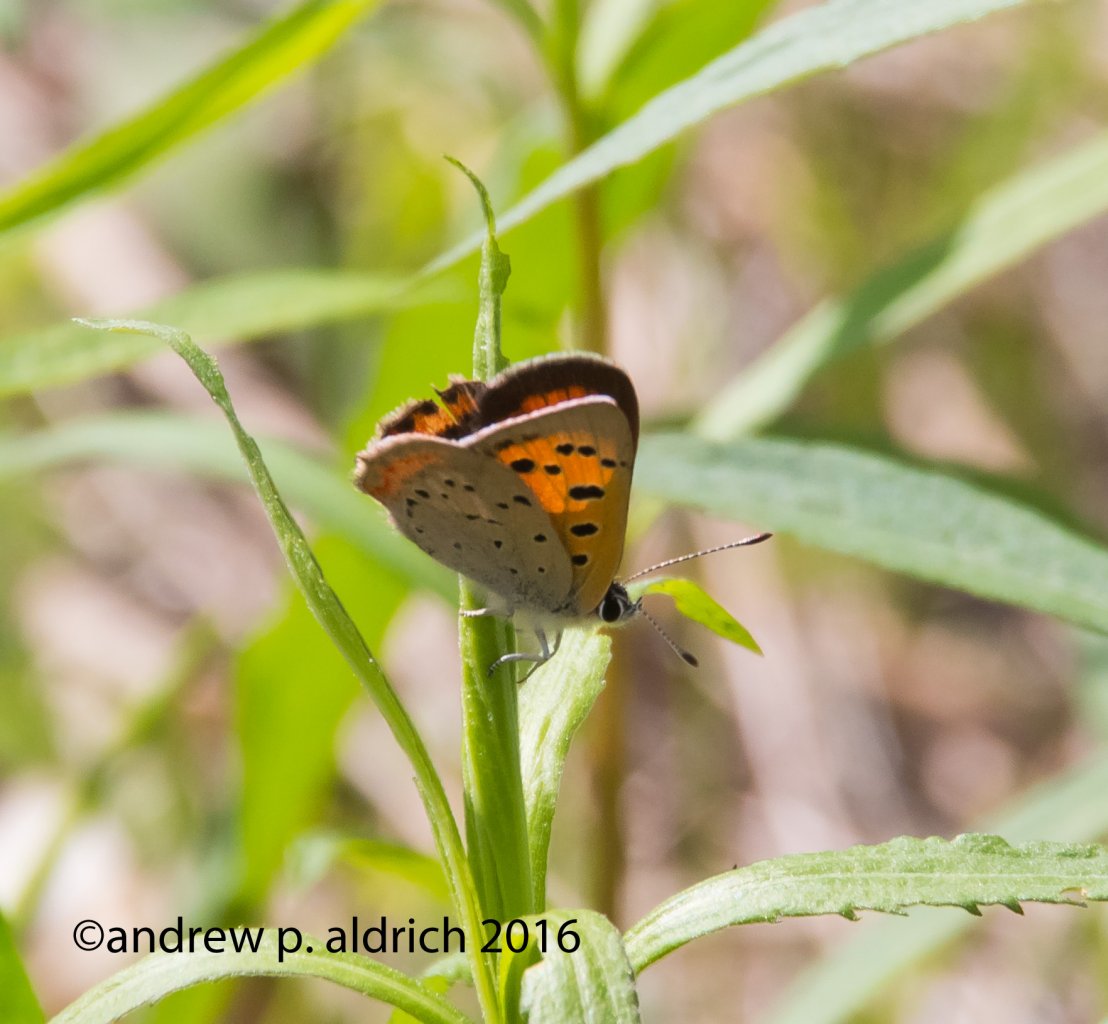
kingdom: Animalia
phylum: Arthropoda
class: Insecta
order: Lepidoptera
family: Lycaenidae
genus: Lycaena
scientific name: Lycaena phlaeas
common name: American Copper
